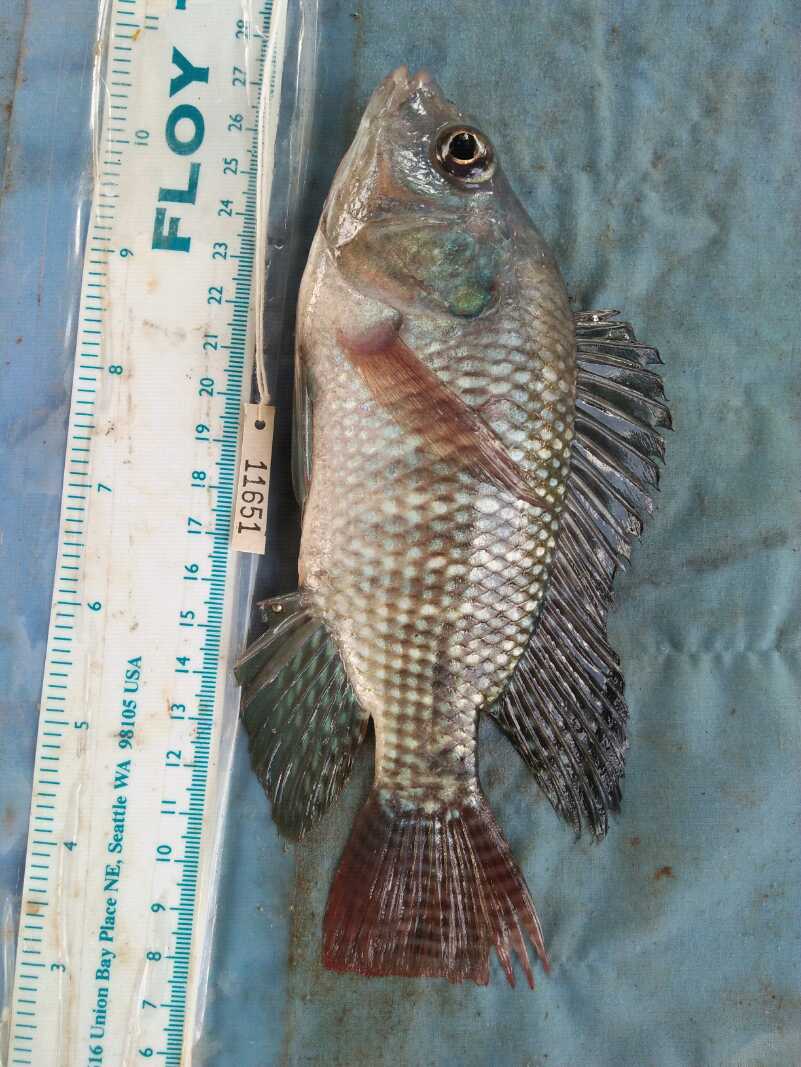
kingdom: Animalia
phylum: Chordata
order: Perciformes
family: Cichlidae
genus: Oreochromis
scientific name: Oreochromis niloticus
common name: Nile tilapia
